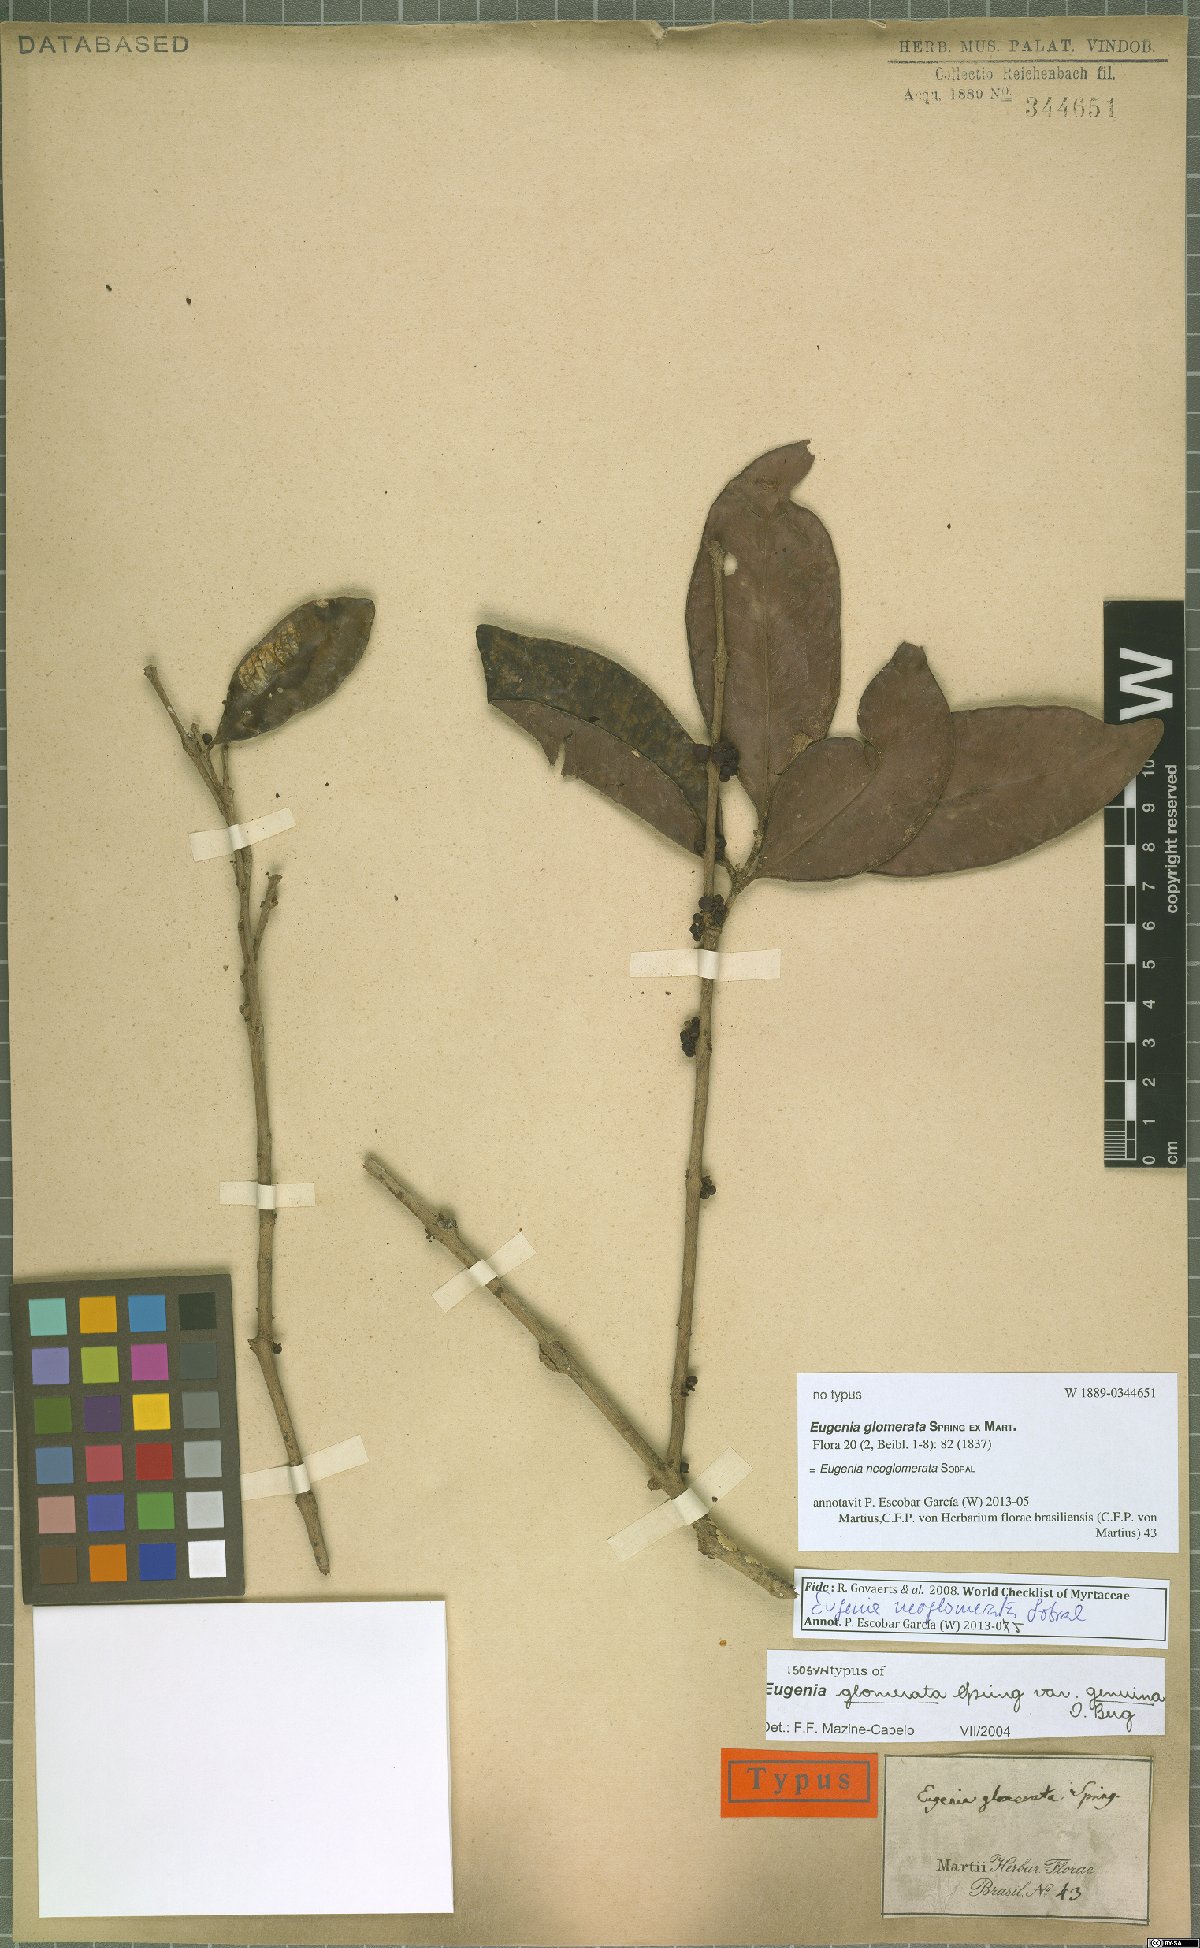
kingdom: Plantae
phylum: Tracheophyta
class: Magnoliopsida
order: Myrtales
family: Myrtaceae
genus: Eugenia
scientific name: Eugenia neoglomerata
